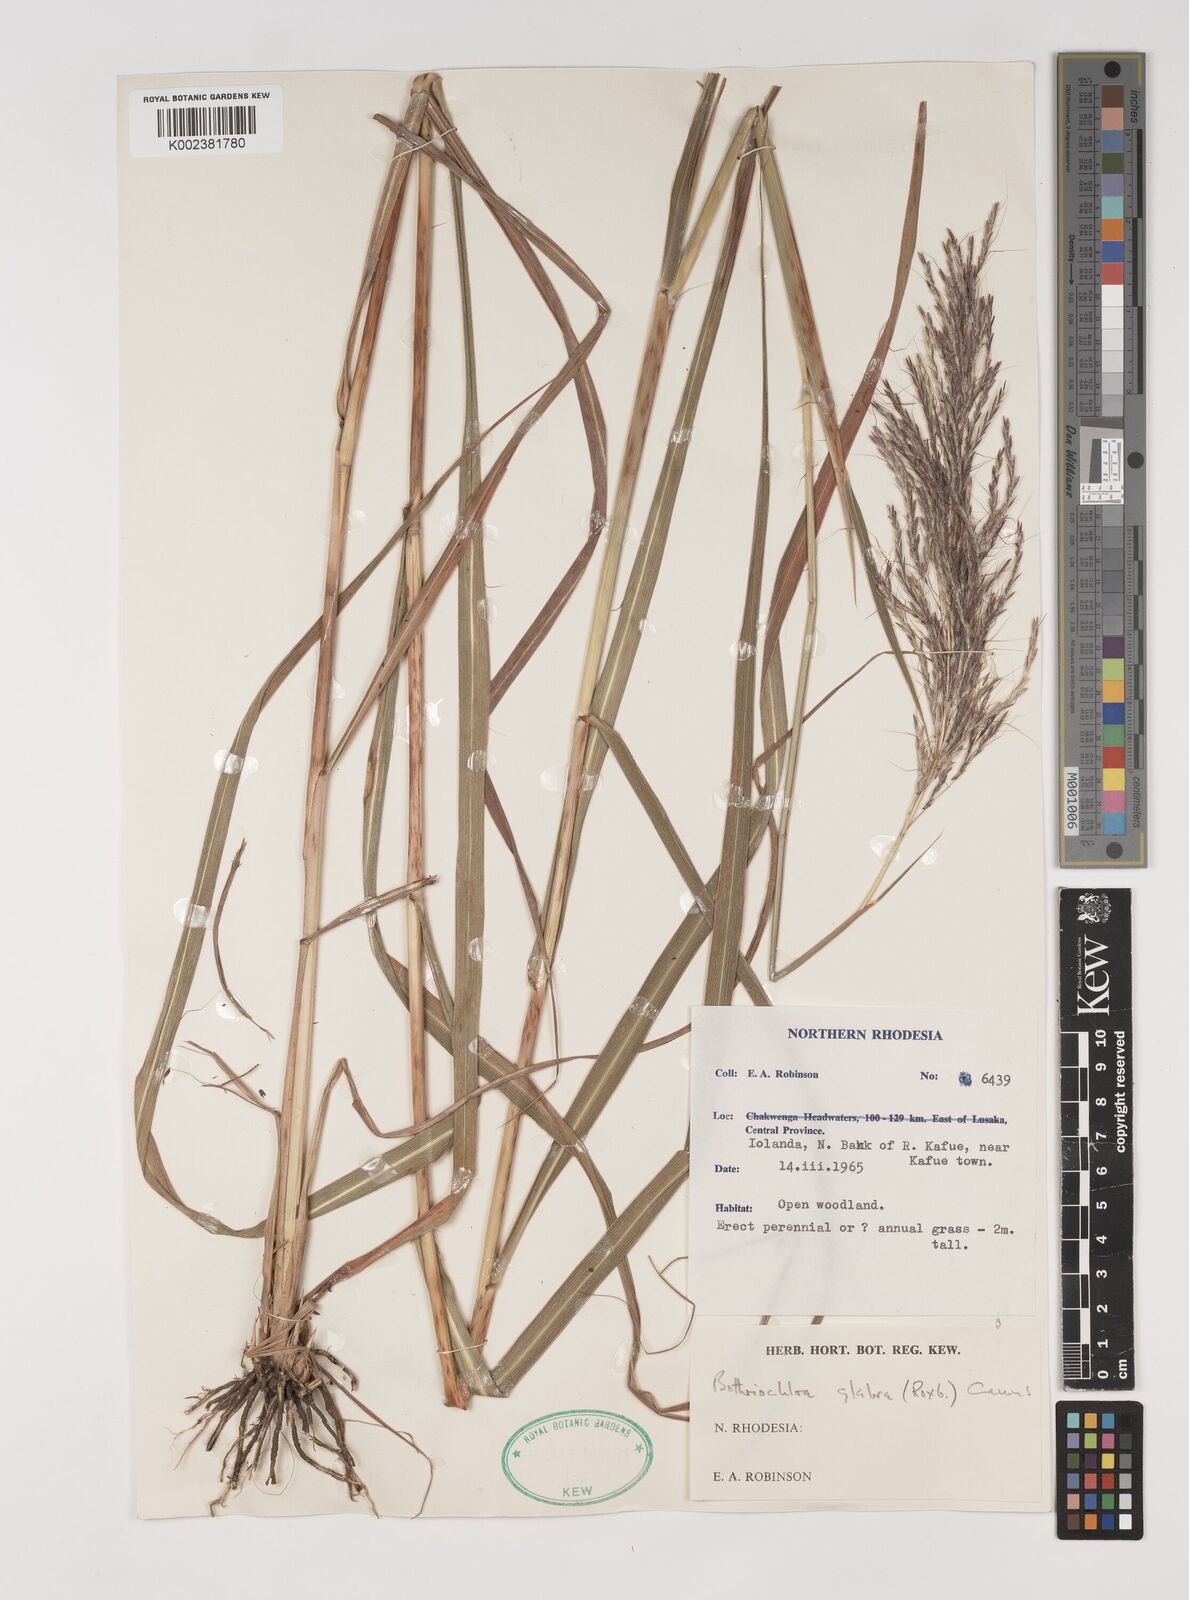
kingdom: Plantae
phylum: Tracheophyta
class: Liliopsida
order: Poales
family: Poaceae
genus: Bothriochloa
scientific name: Bothriochloa bladhii
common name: Caucasian bluestem
